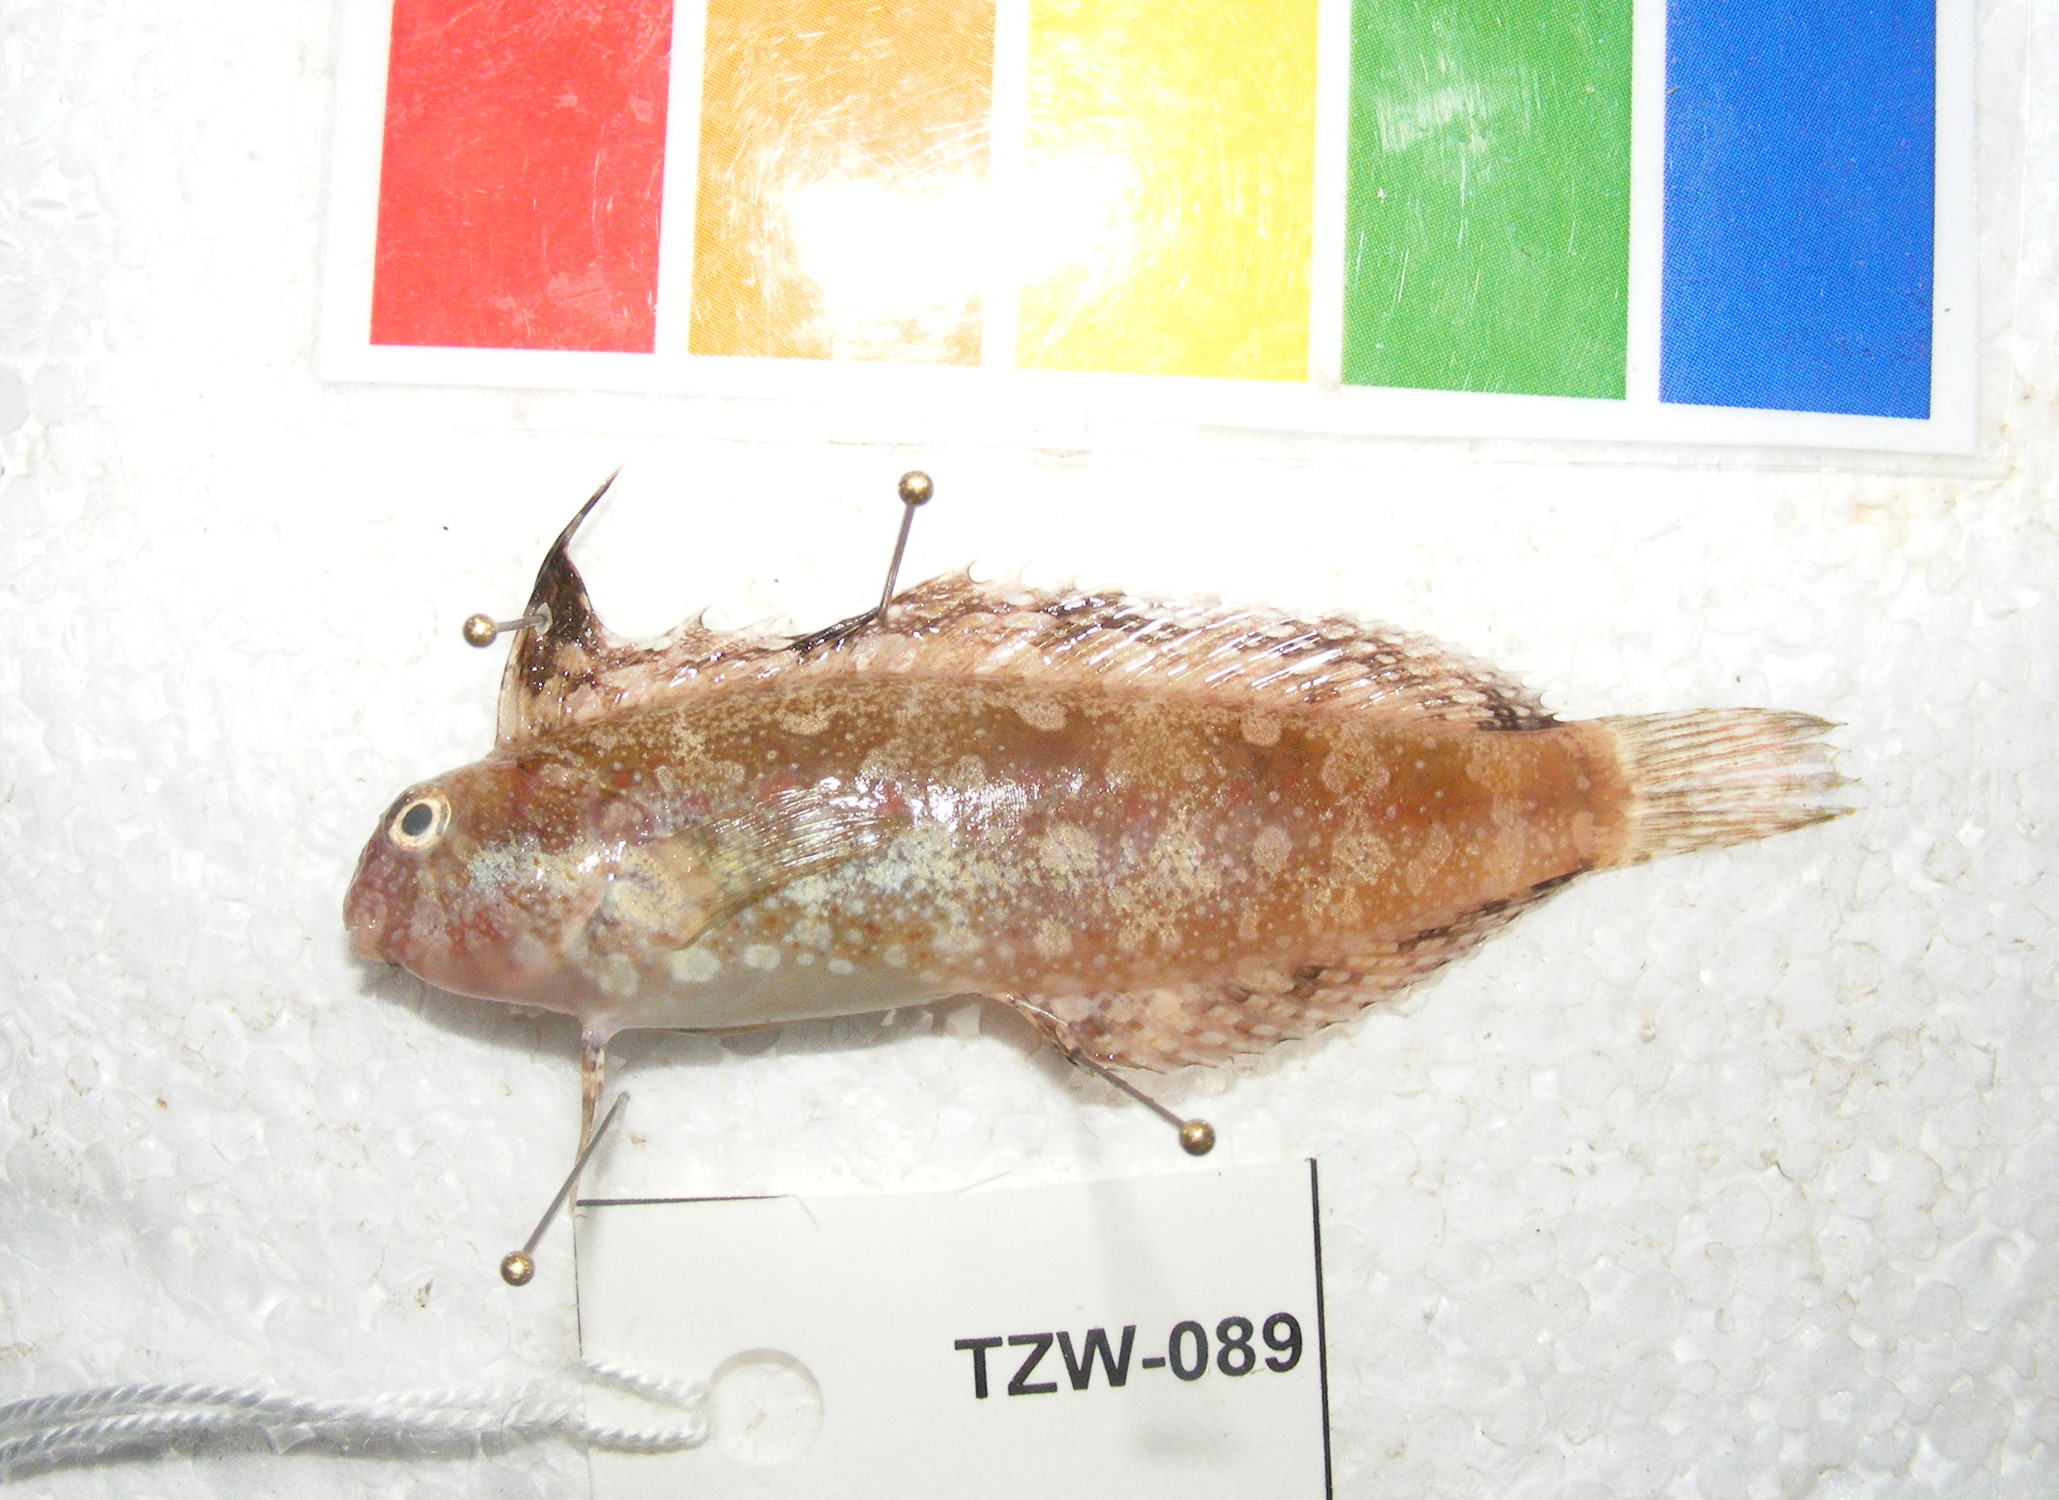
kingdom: Animalia
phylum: Chordata
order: Perciformes
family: Blenniidae
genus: Petroscirtes
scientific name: Petroscirtes mitratus
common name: Floral blenny
